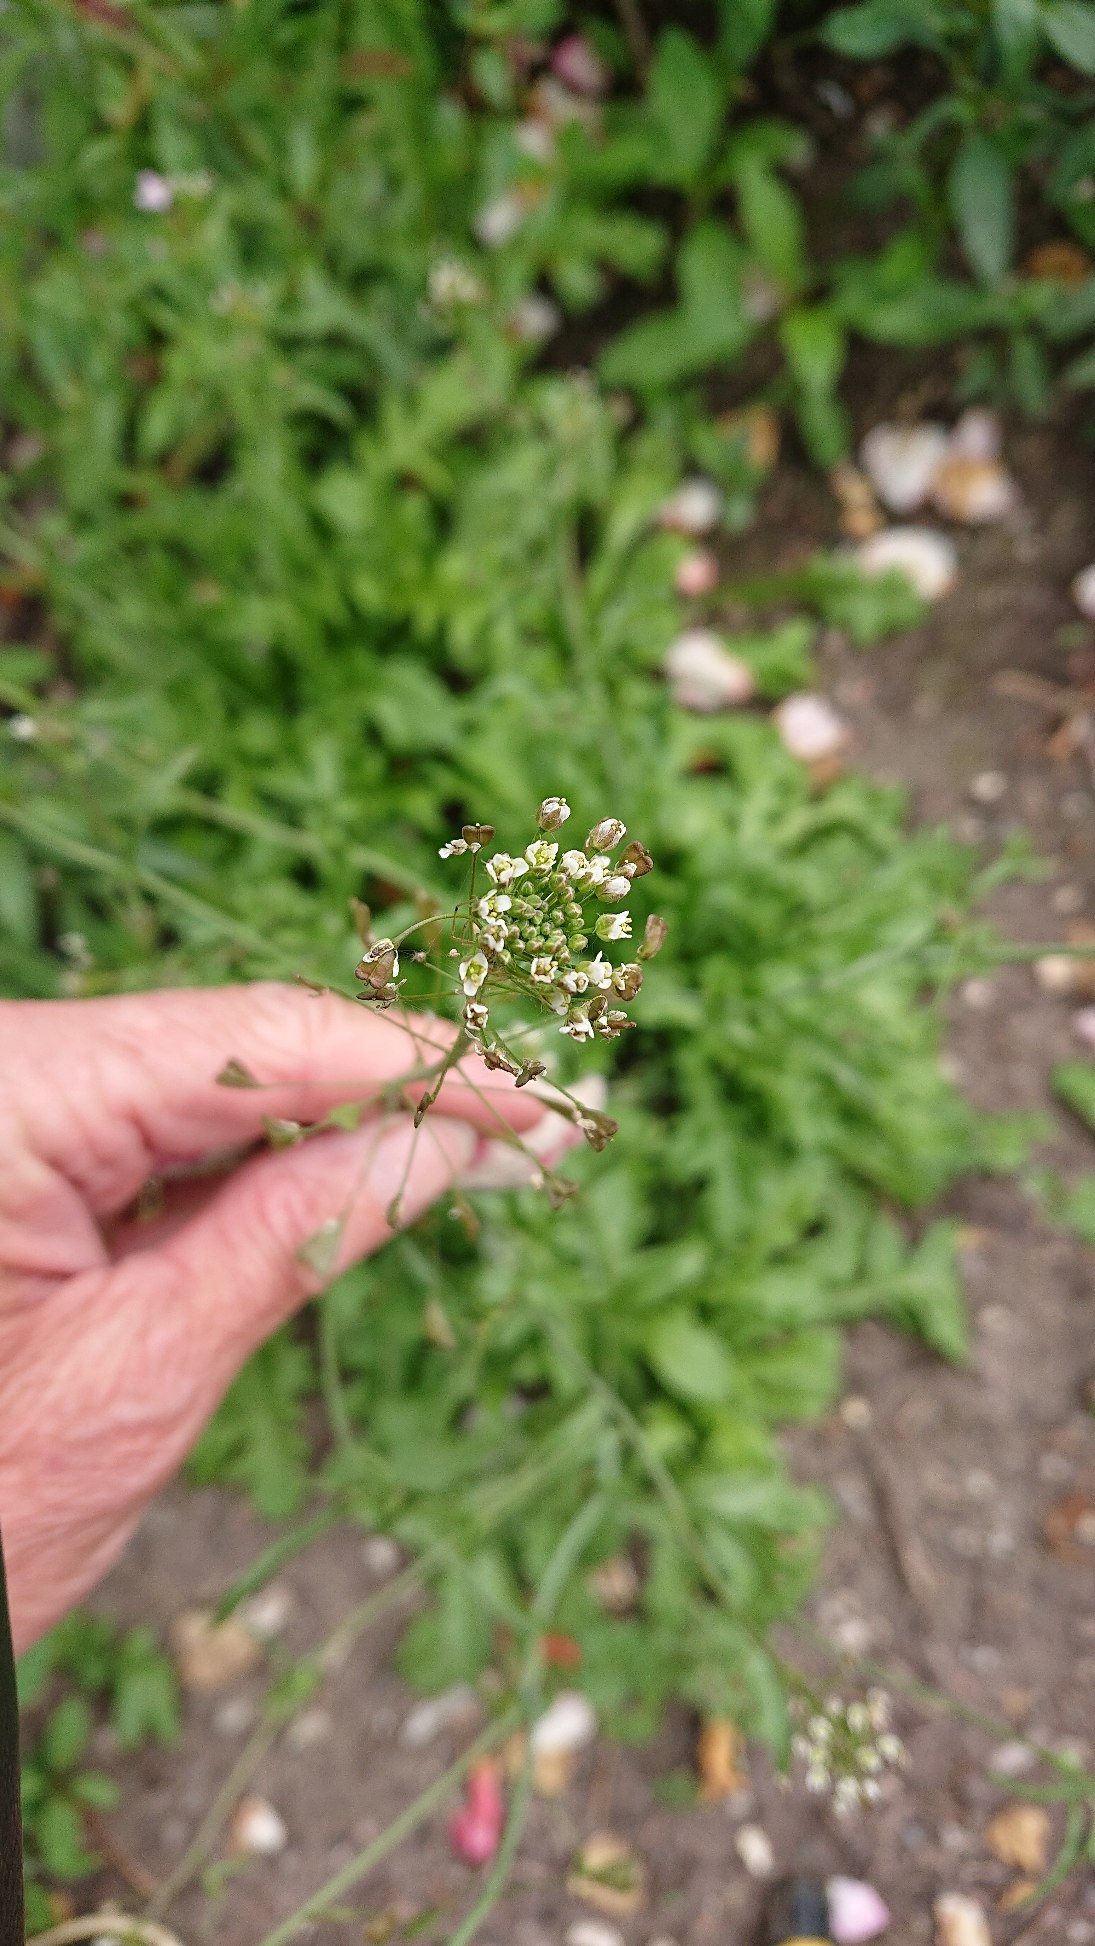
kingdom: Plantae
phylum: Tracheophyta
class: Magnoliopsida
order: Brassicales
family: Brassicaceae
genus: Capsella
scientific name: Capsella bursa-pastoris
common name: Hyrdetaske
